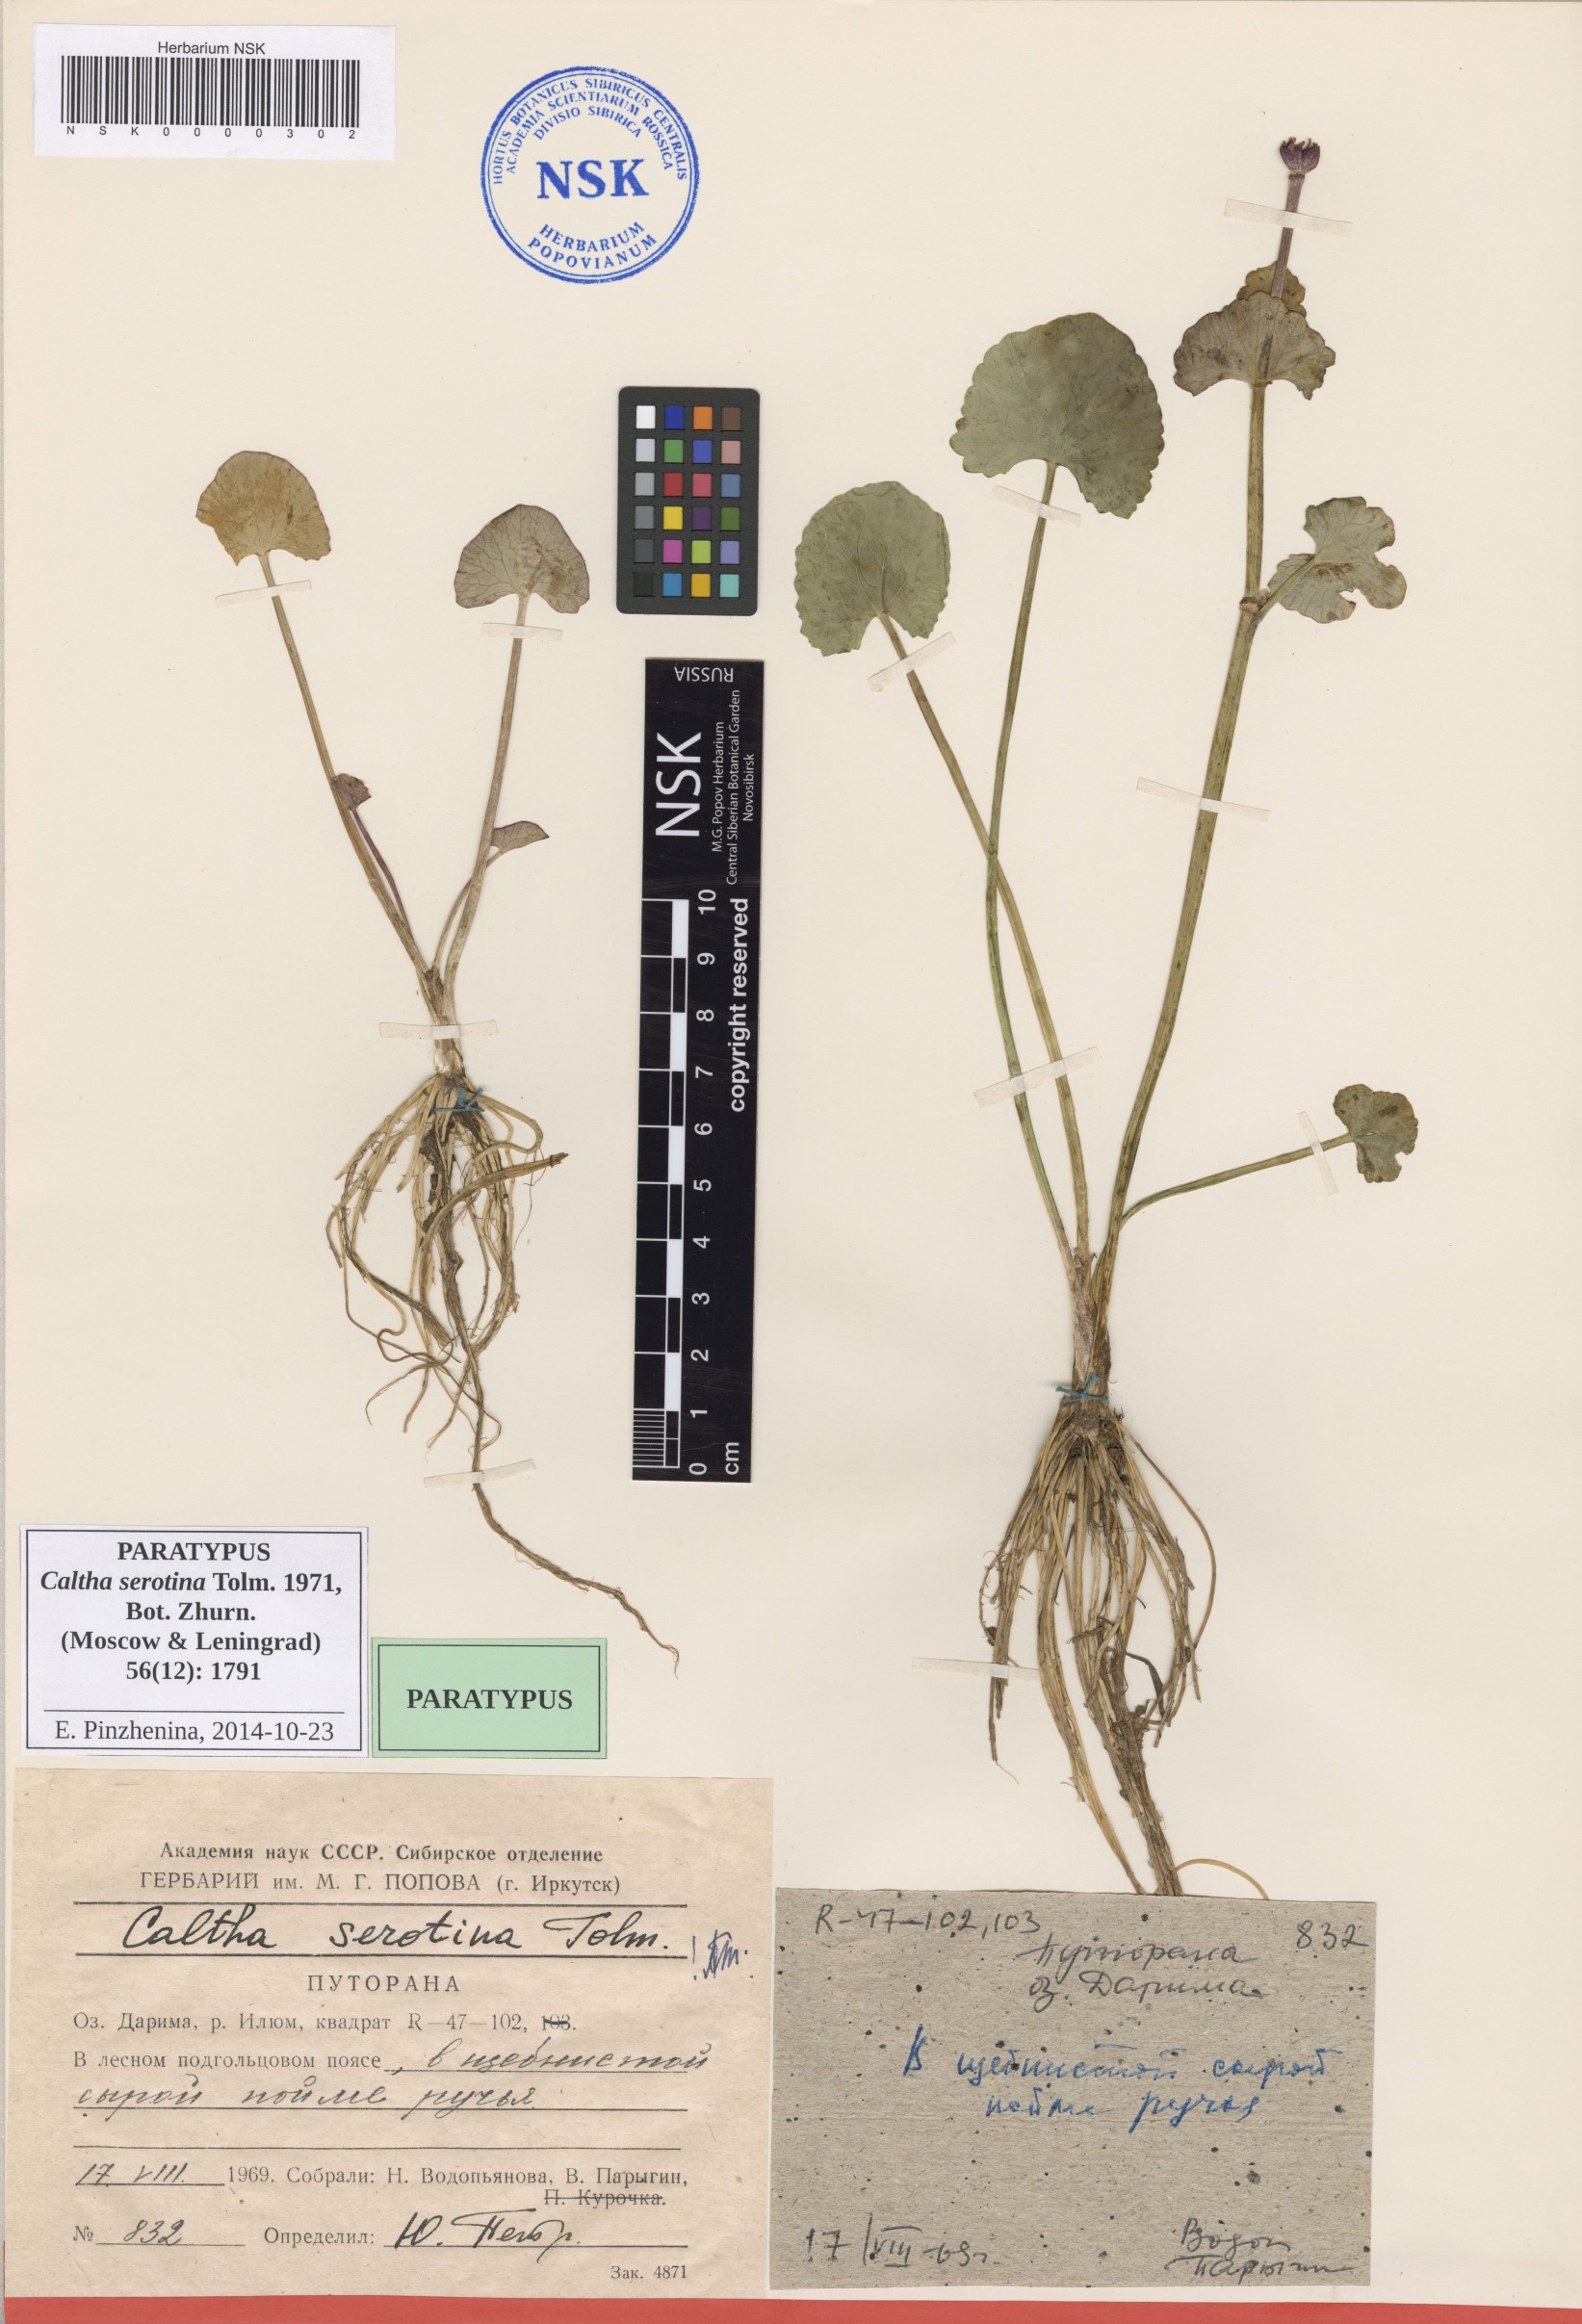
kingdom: Plantae
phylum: Tracheophyta
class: Magnoliopsida
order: Ranunculales
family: Ranunculaceae
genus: Caltha
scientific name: Caltha palustris
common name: Marsh marigold
